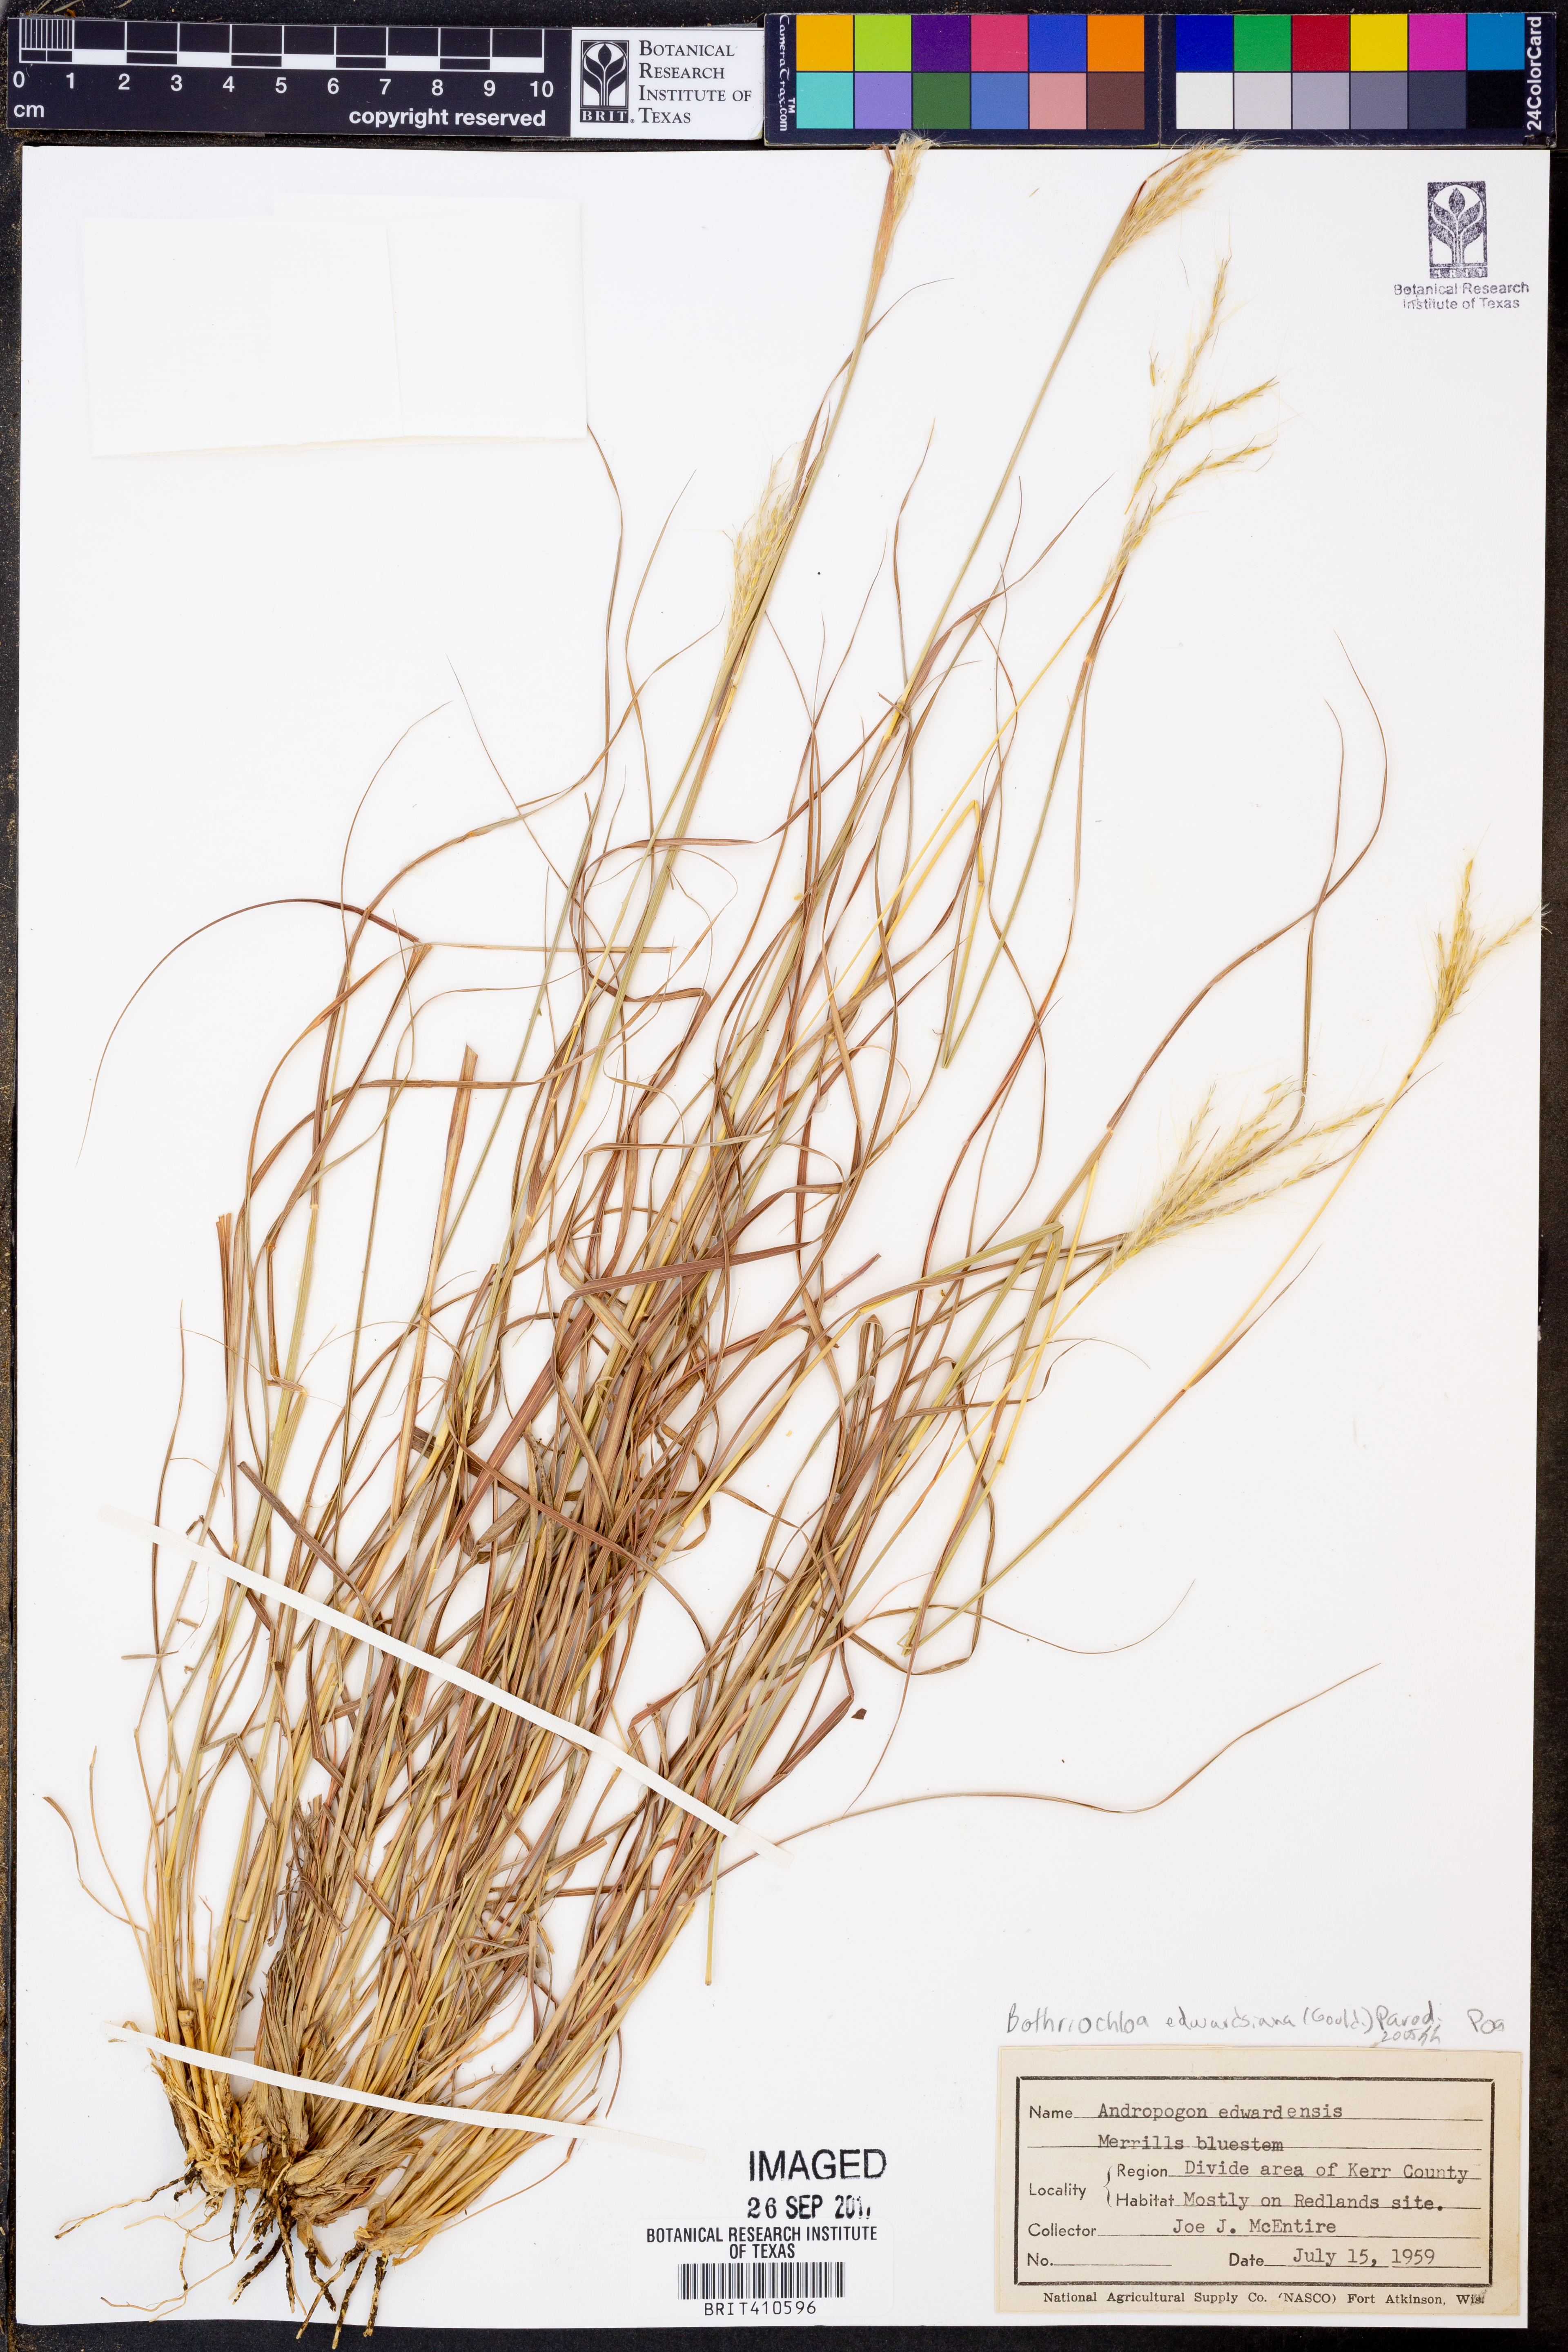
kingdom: Plantae
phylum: Tracheophyta
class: Liliopsida
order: Poales
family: Poaceae
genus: Bothriochloa
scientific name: Bothriochloa edwardsiana
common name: Merrill's bluestem
